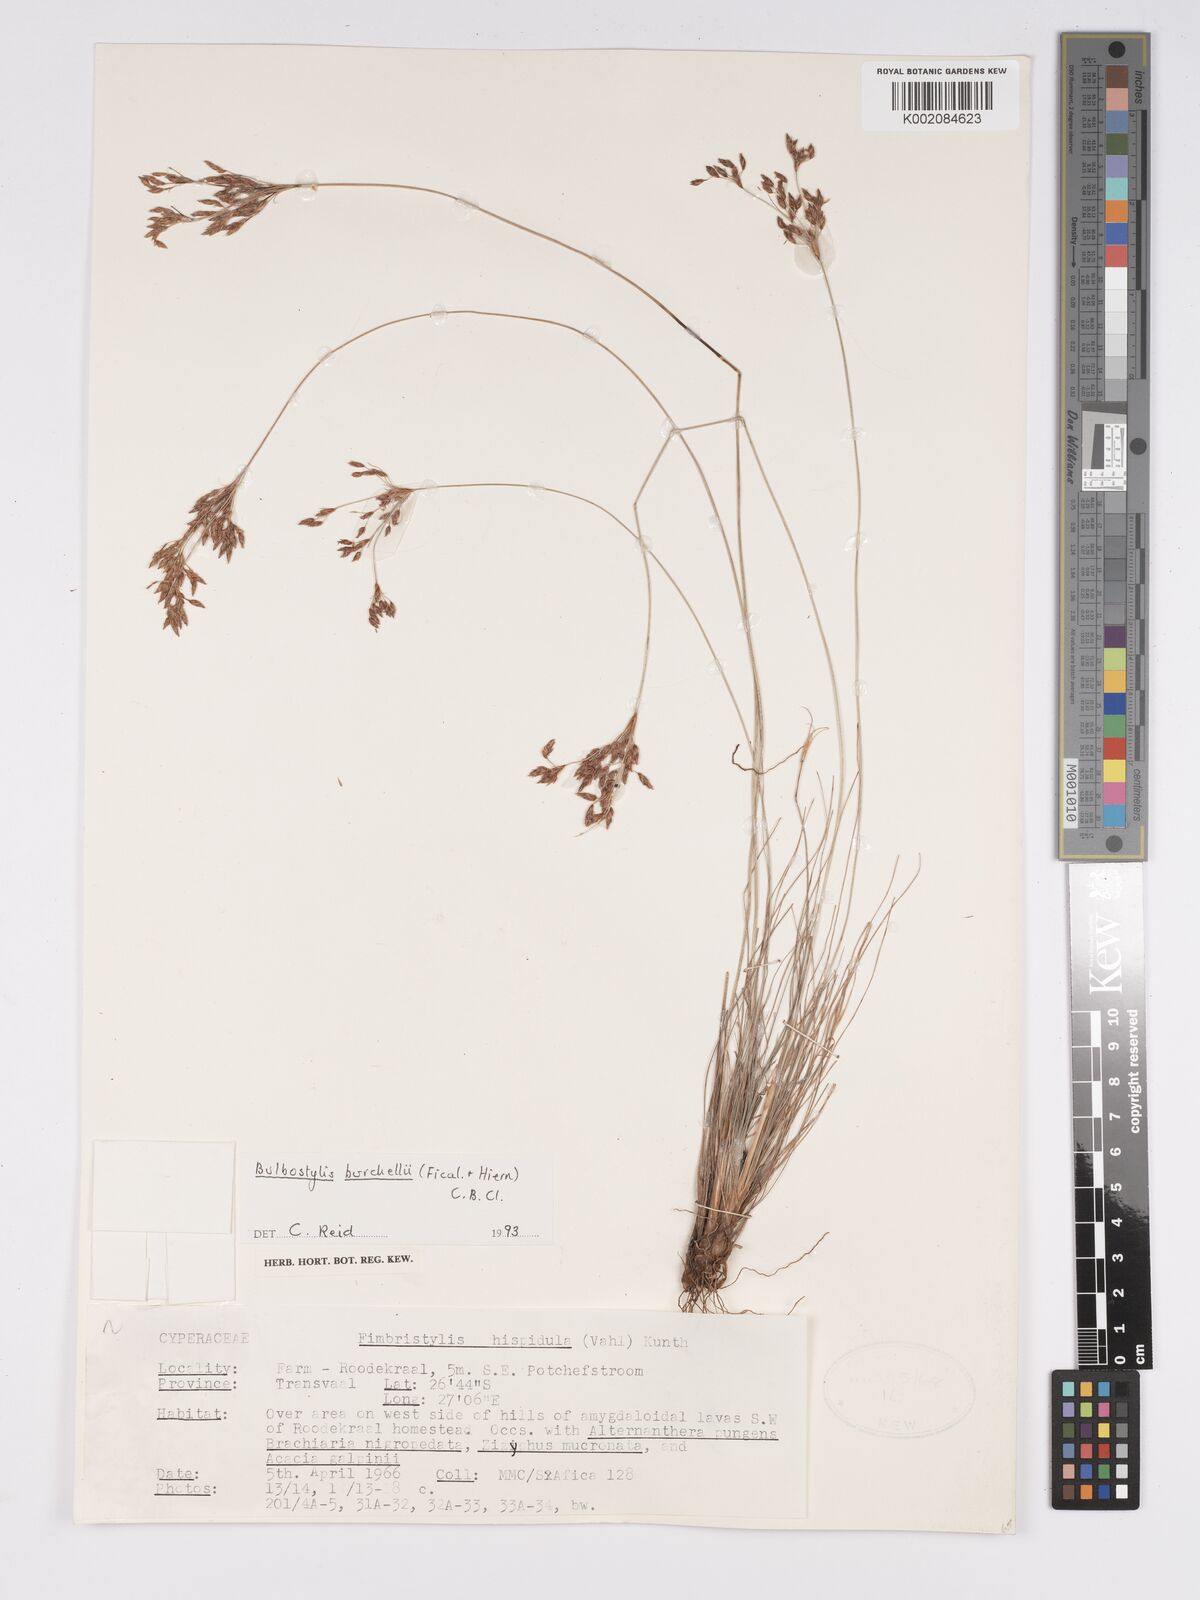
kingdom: Plantae
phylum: Tracheophyta
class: Liliopsida
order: Poales
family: Cyperaceae
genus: Bulbostylis
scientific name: Bulbostylis
